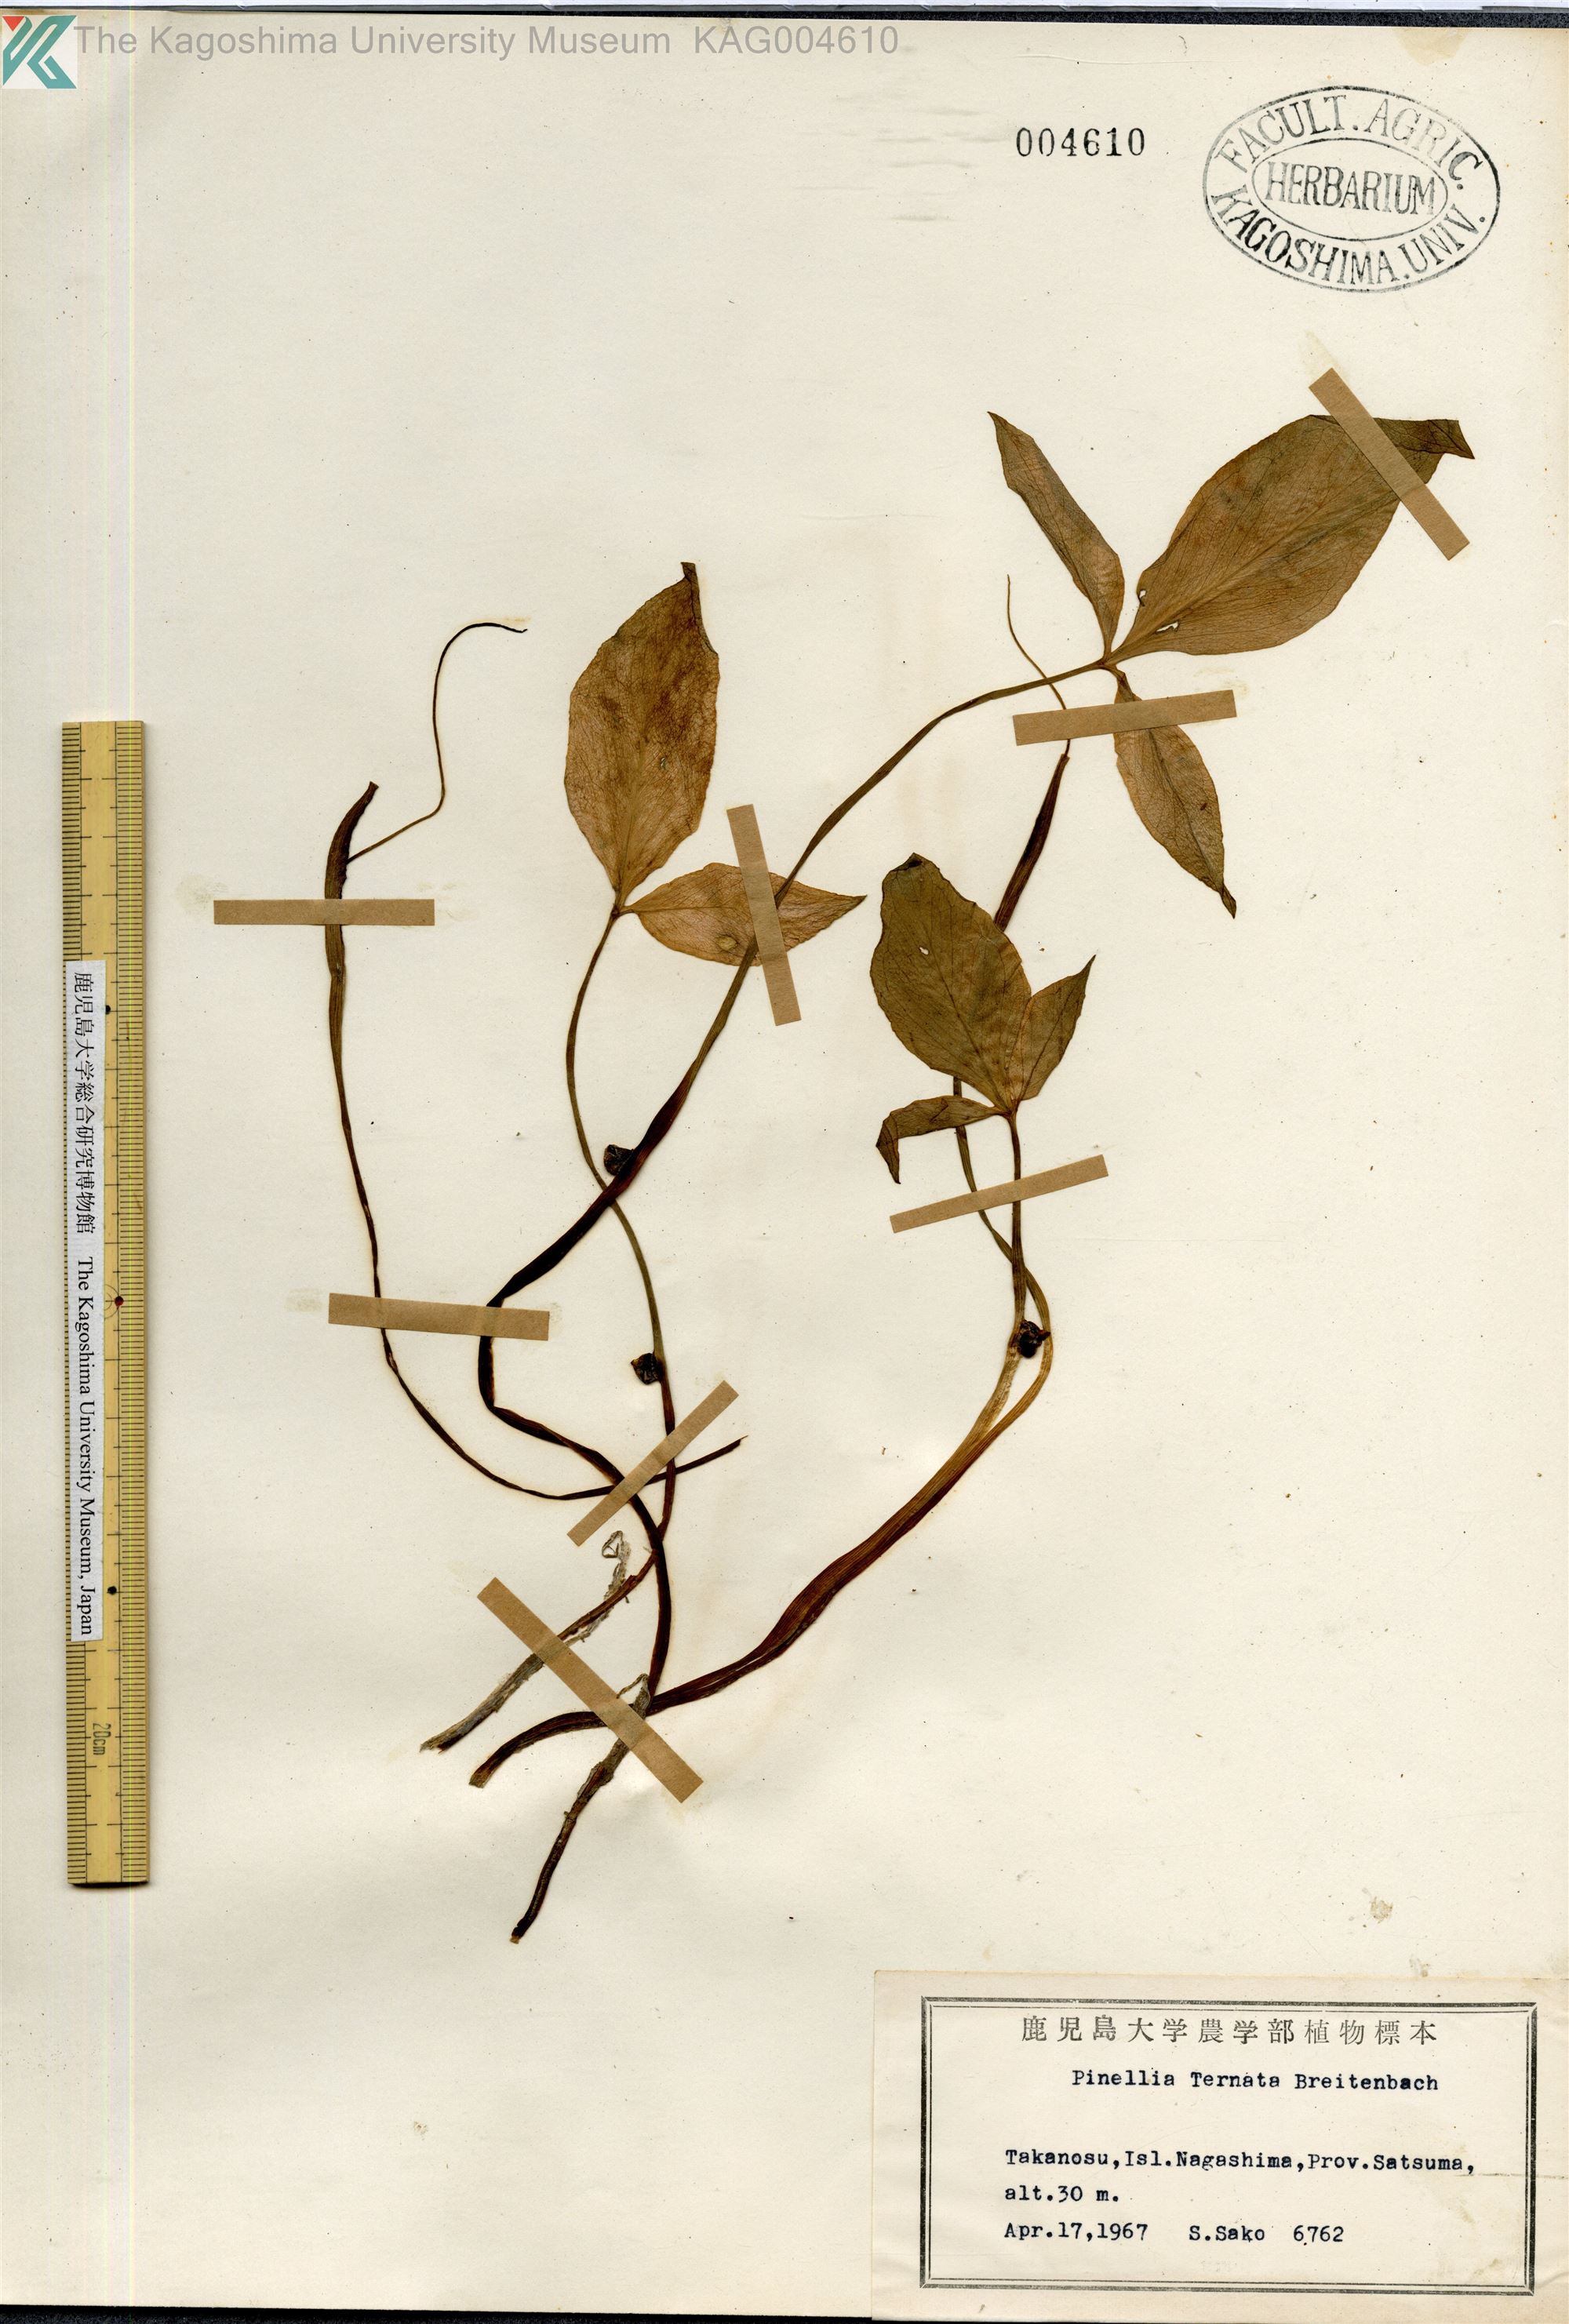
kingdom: Plantae
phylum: Tracheophyta
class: Liliopsida
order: Alismatales
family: Araceae
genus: Pinellia
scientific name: Pinellia ternata
